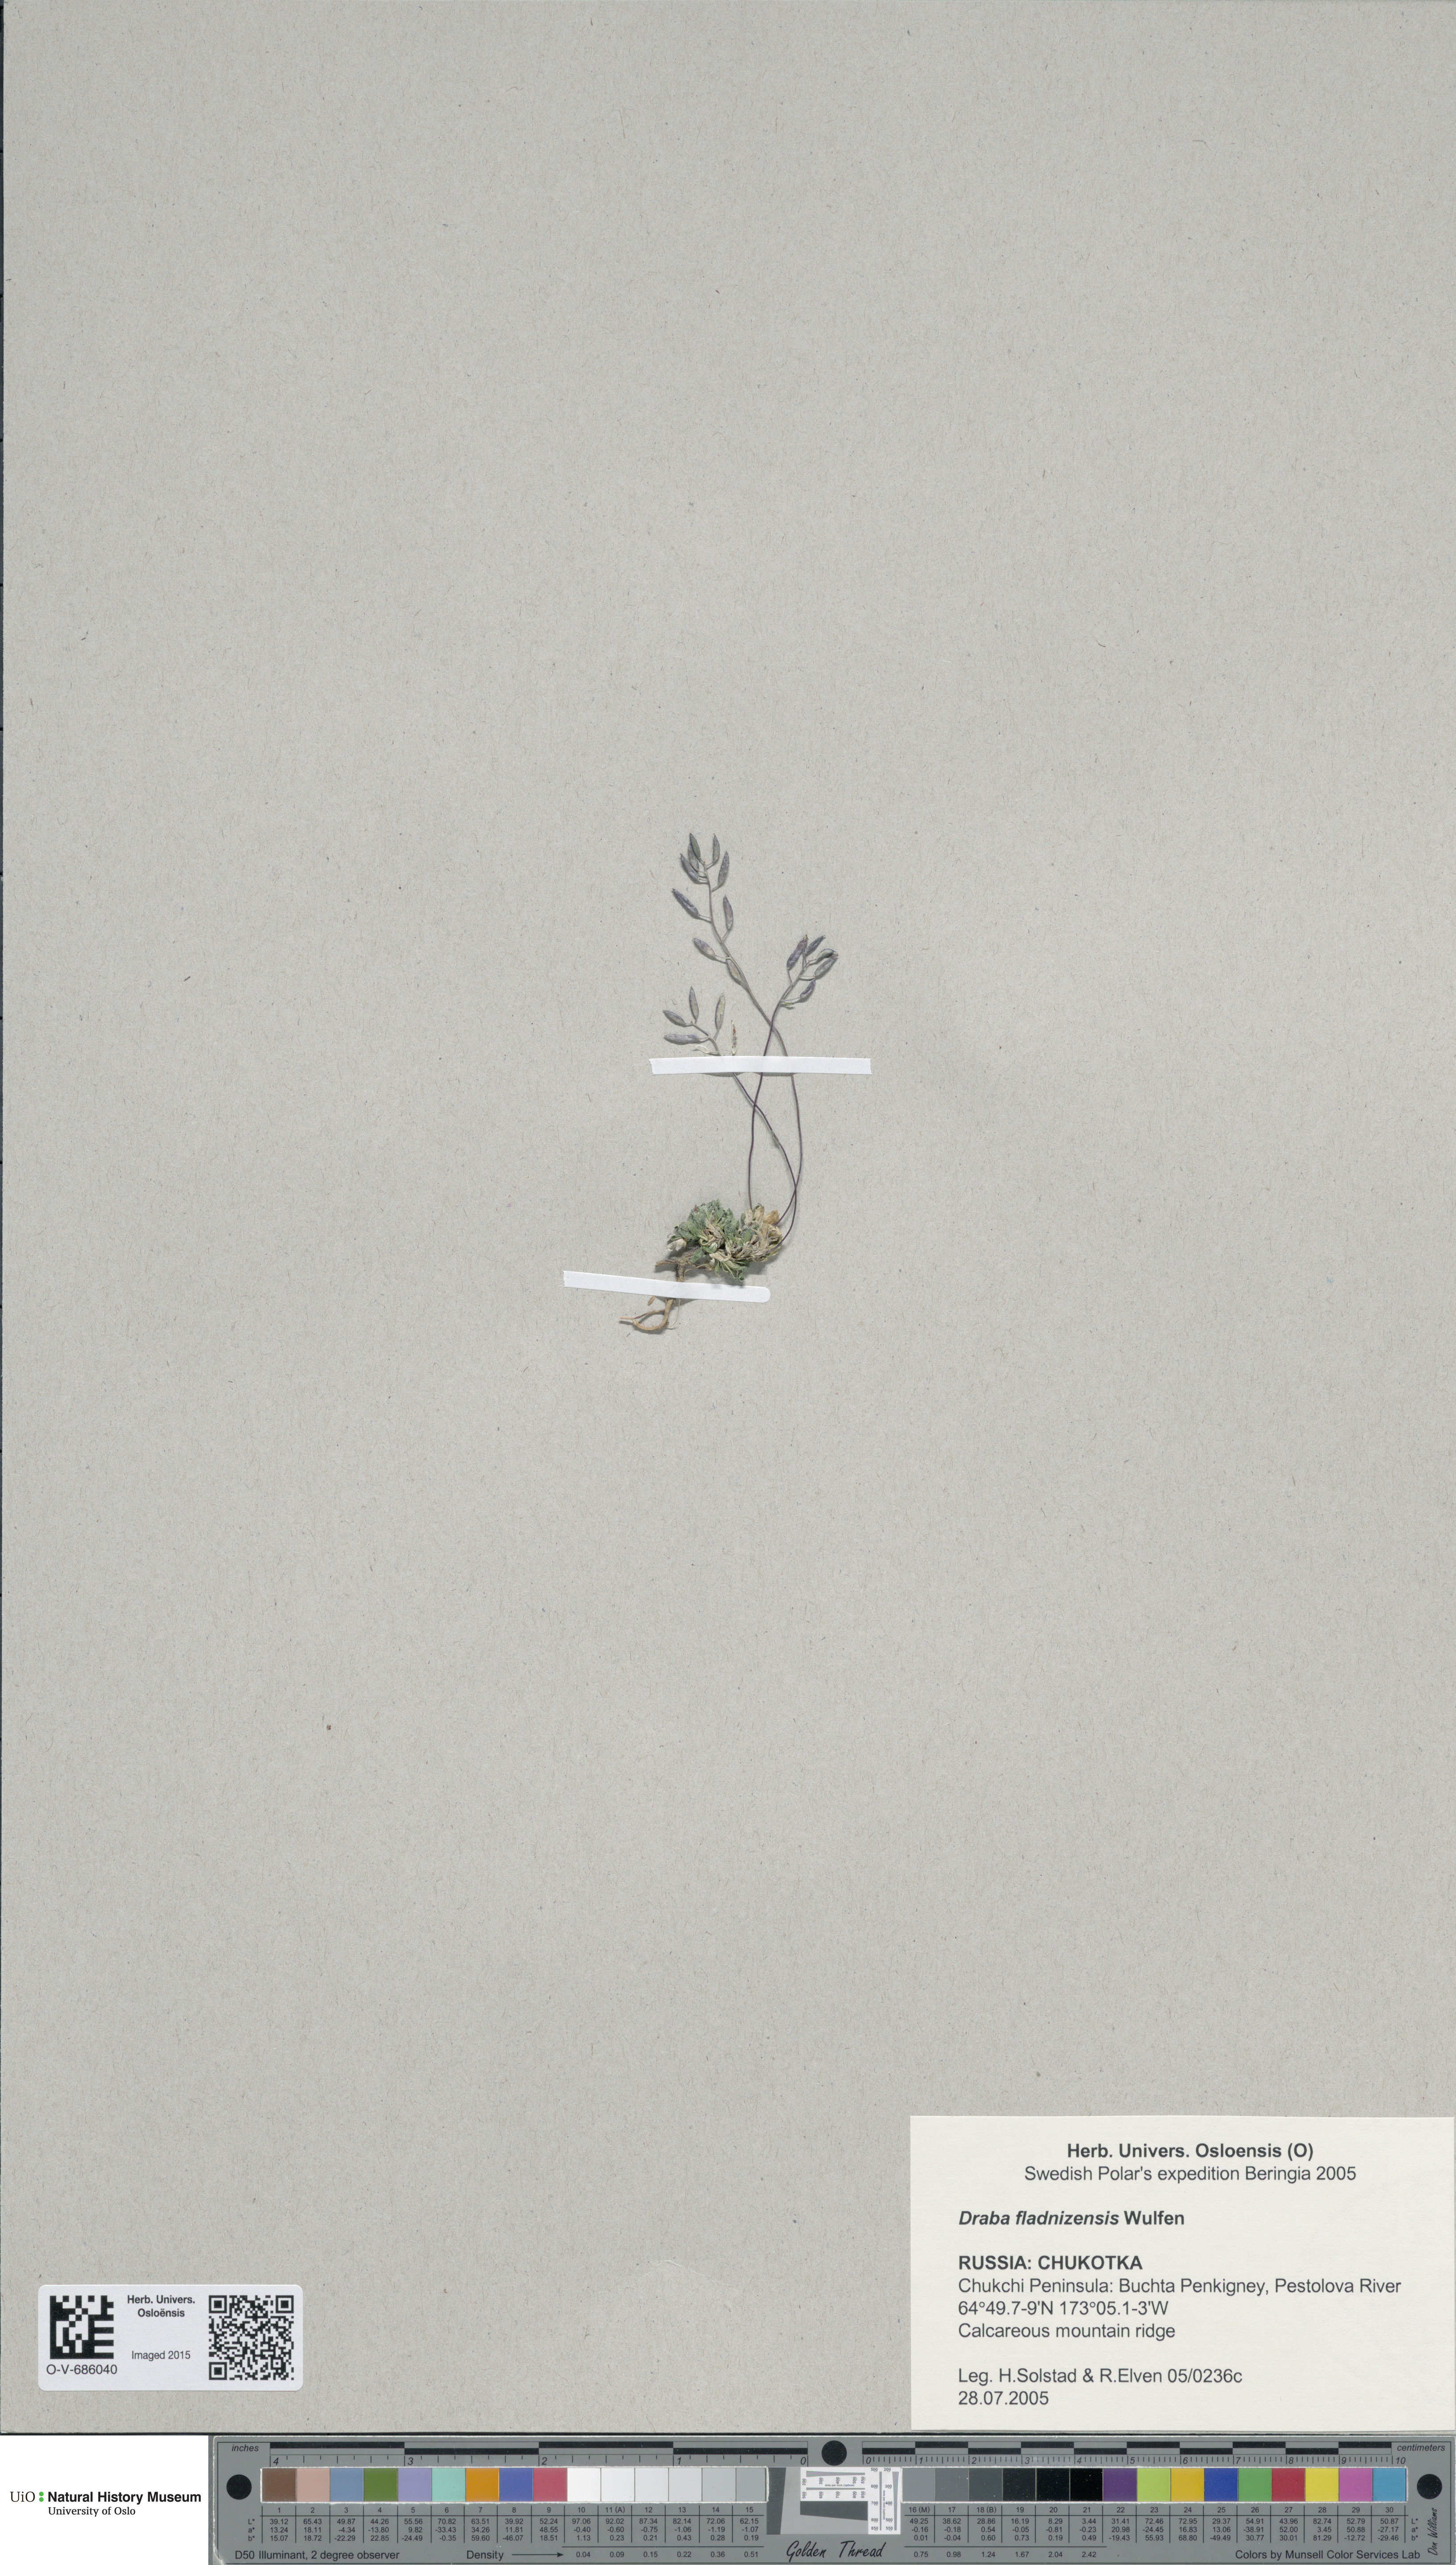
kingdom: Plantae
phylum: Tracheophyta
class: Magnoliopsida
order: Brassicales
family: Brassicaceae
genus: Draba
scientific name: Draba fladnizensis
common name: Austrian draba
